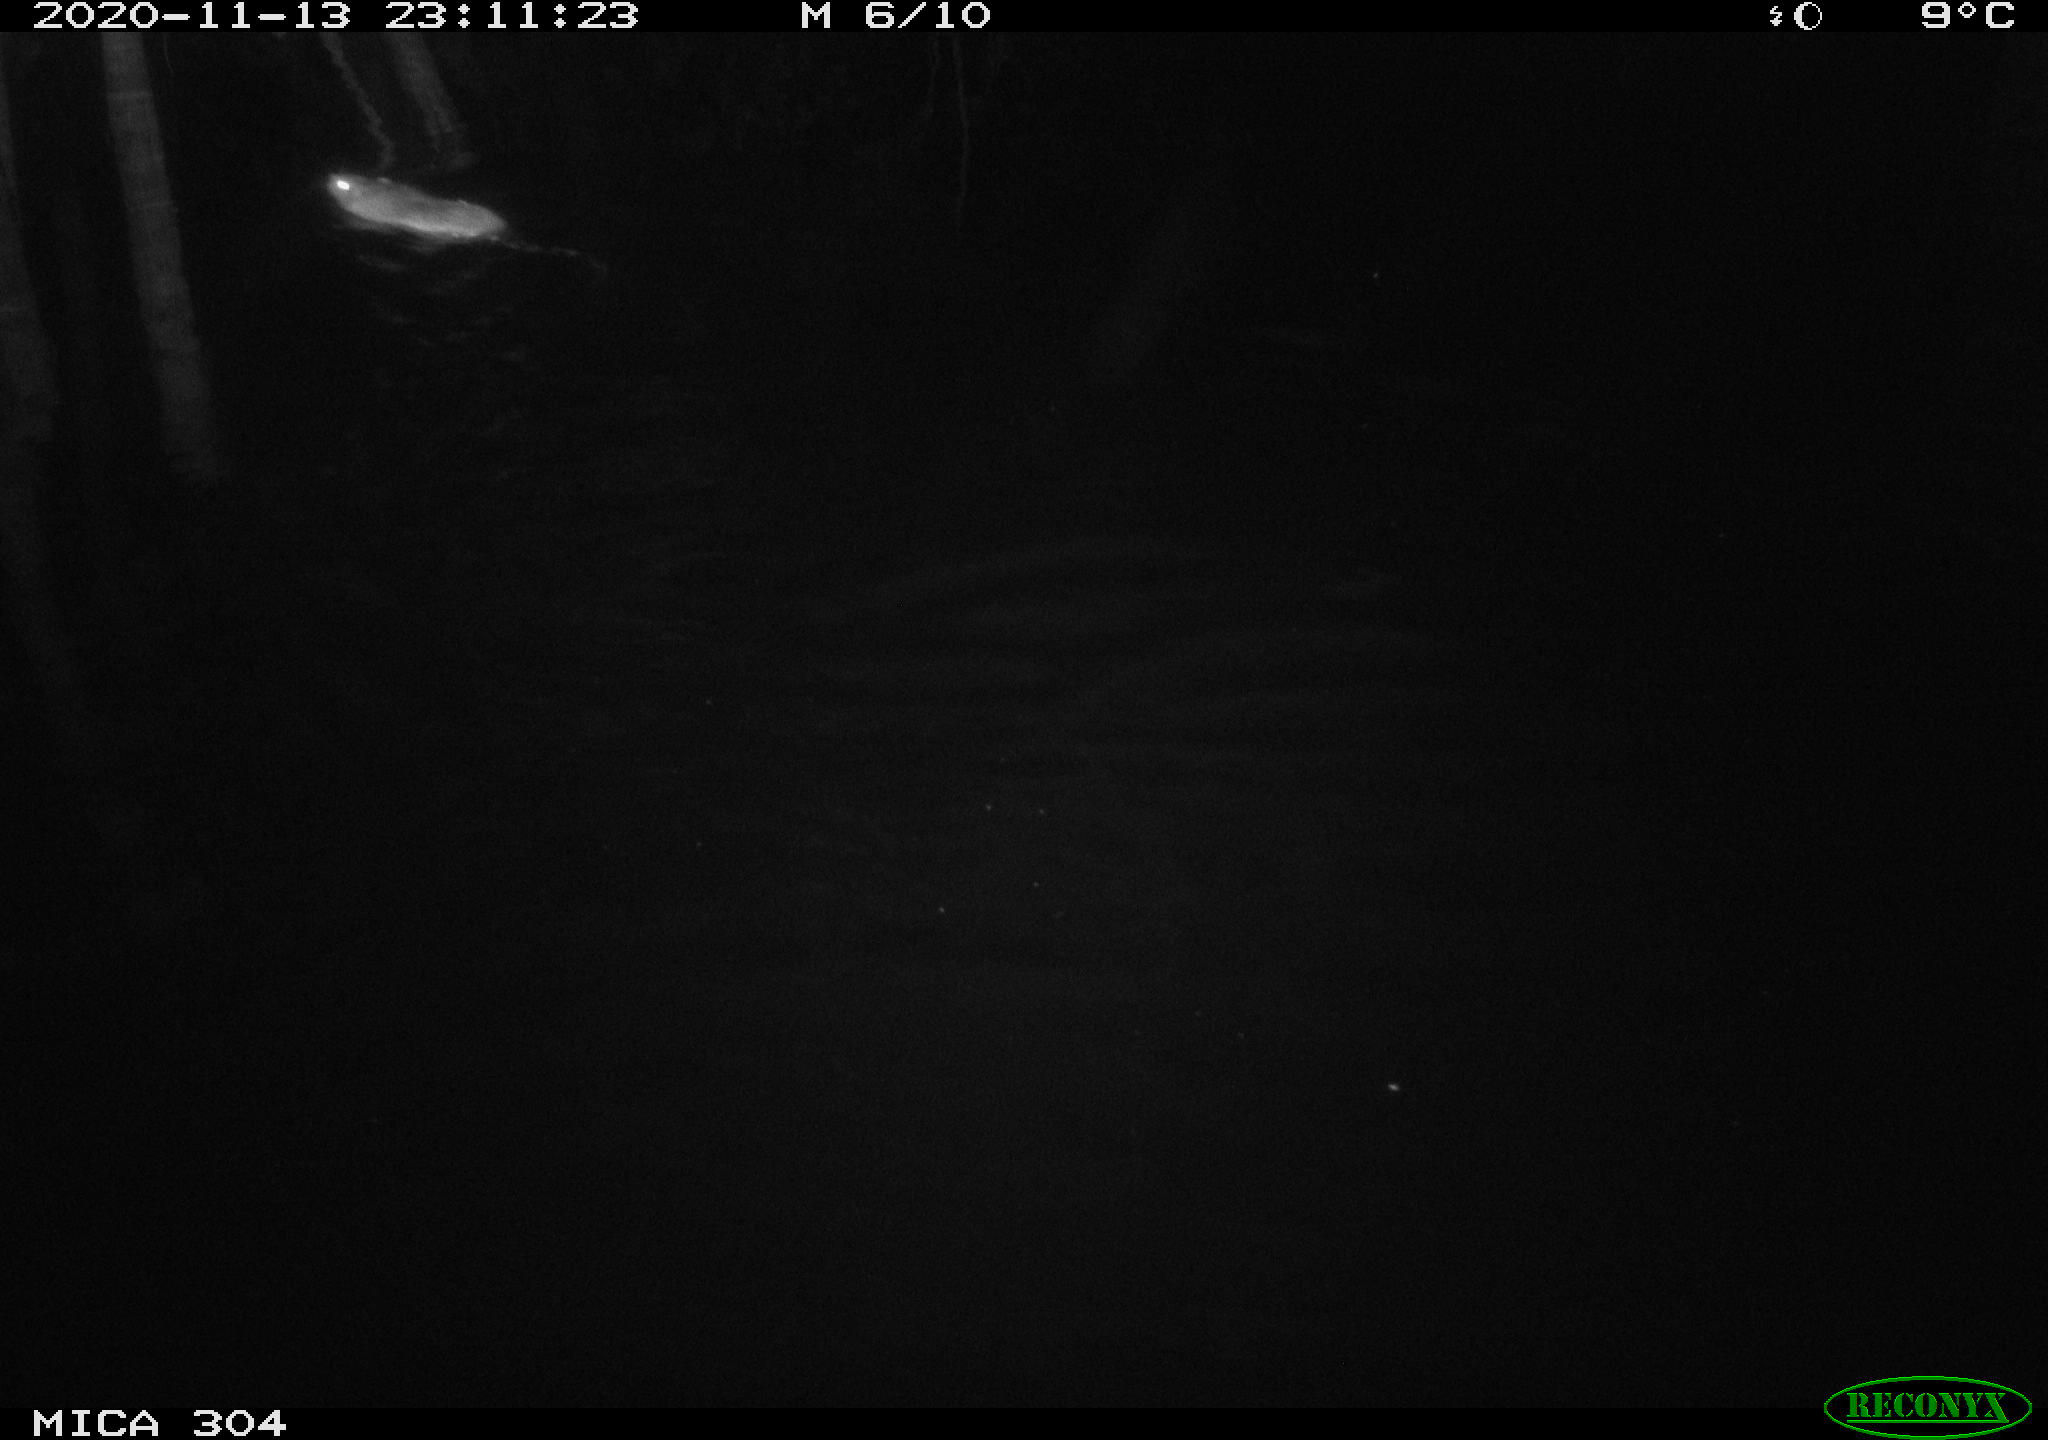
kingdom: Animalia
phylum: Chordata
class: Mammalia
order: Rodentia
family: Muridae
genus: Rattus
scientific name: Rattus norvegicus
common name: Brown rat
